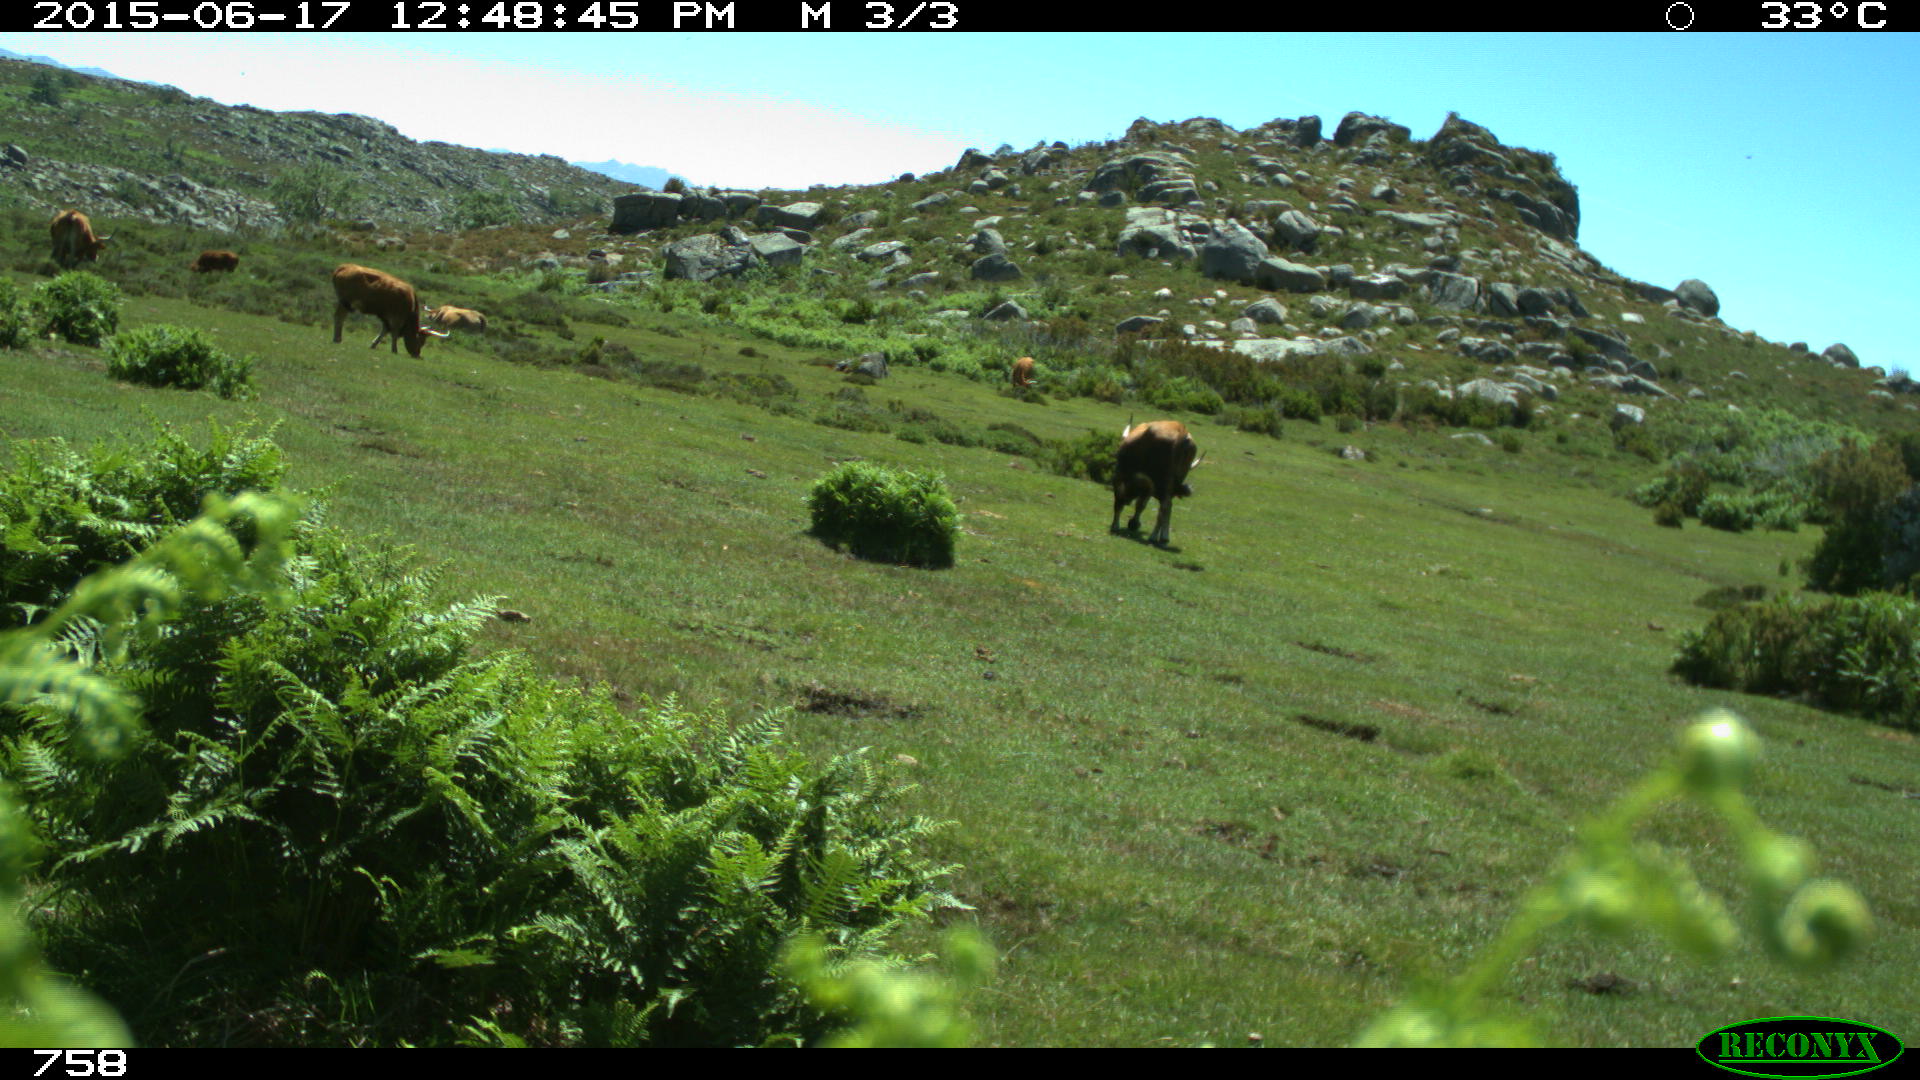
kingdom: Animalia
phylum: Chordata
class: Mammalia
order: Artiodactyla
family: Bovidae
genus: Bos
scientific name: Bos taurus
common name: Domesticated cattle
